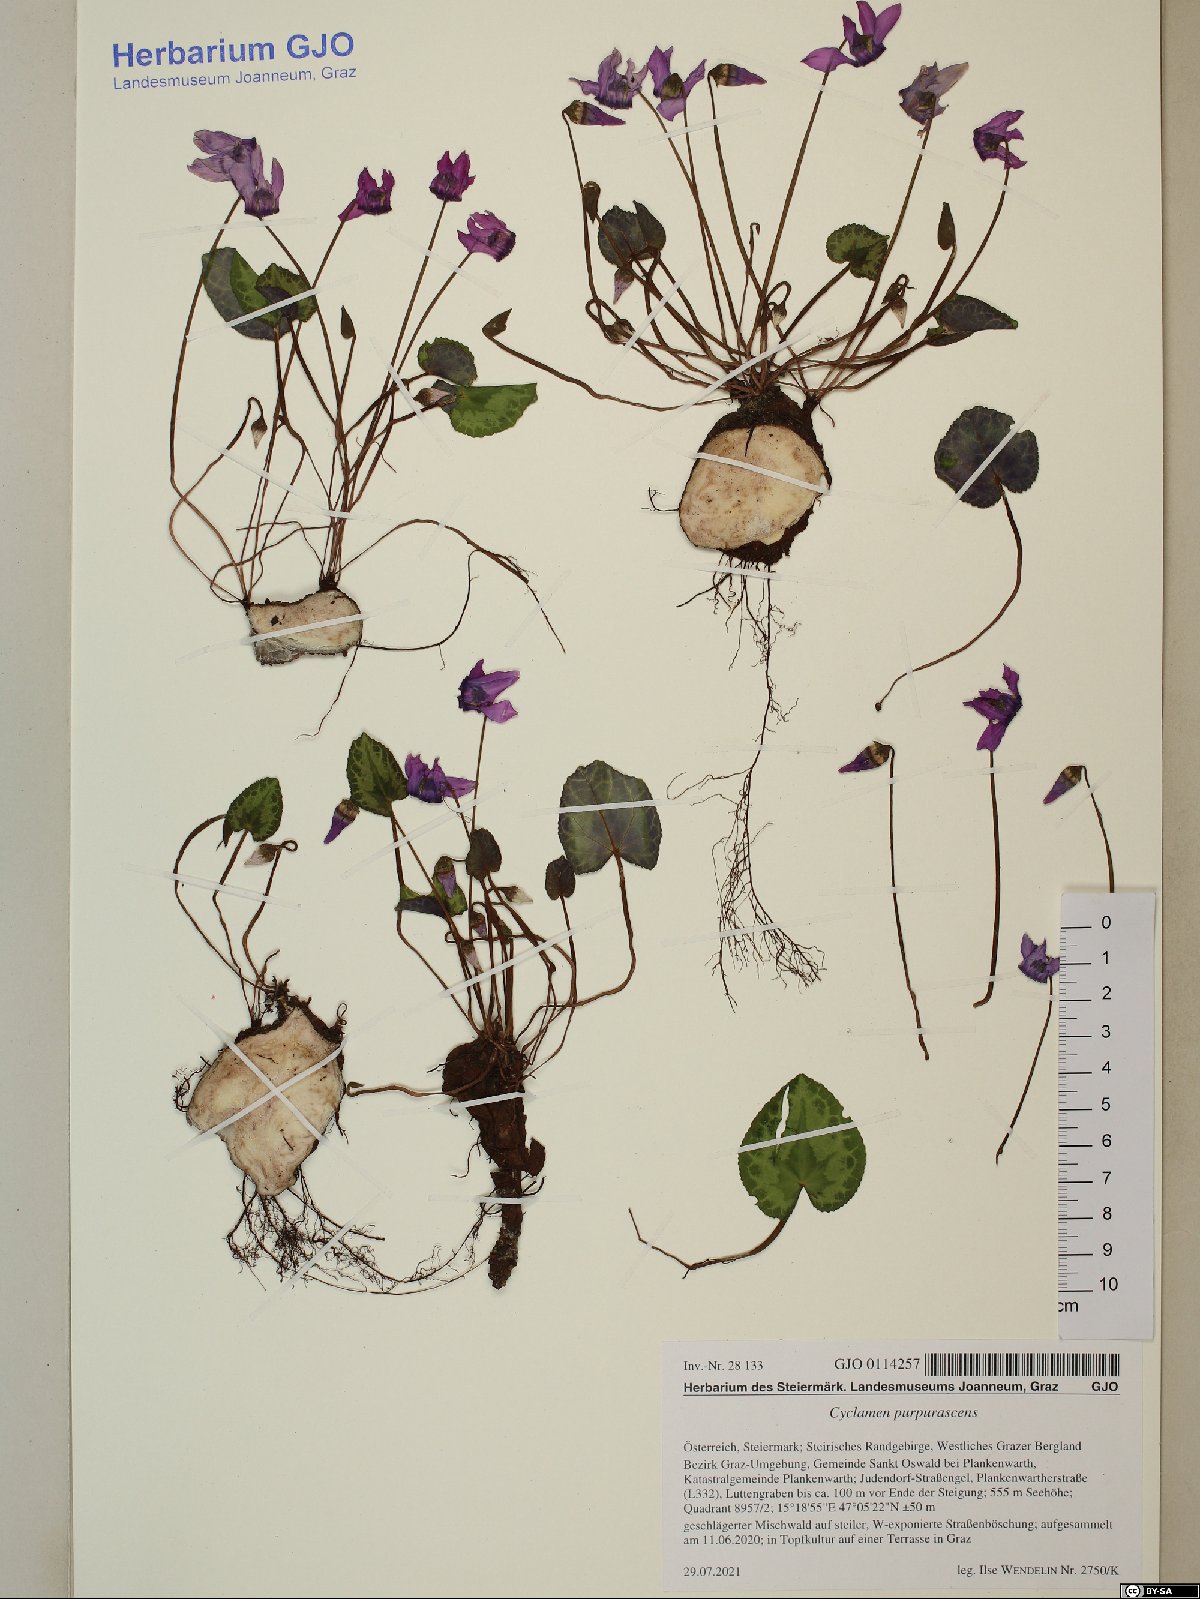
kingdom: Plantae
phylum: Tracheophyta
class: Magnoliopsida
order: Ericales
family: Primulaceae
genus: Cyclamen
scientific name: Cyclamen purpurascens
